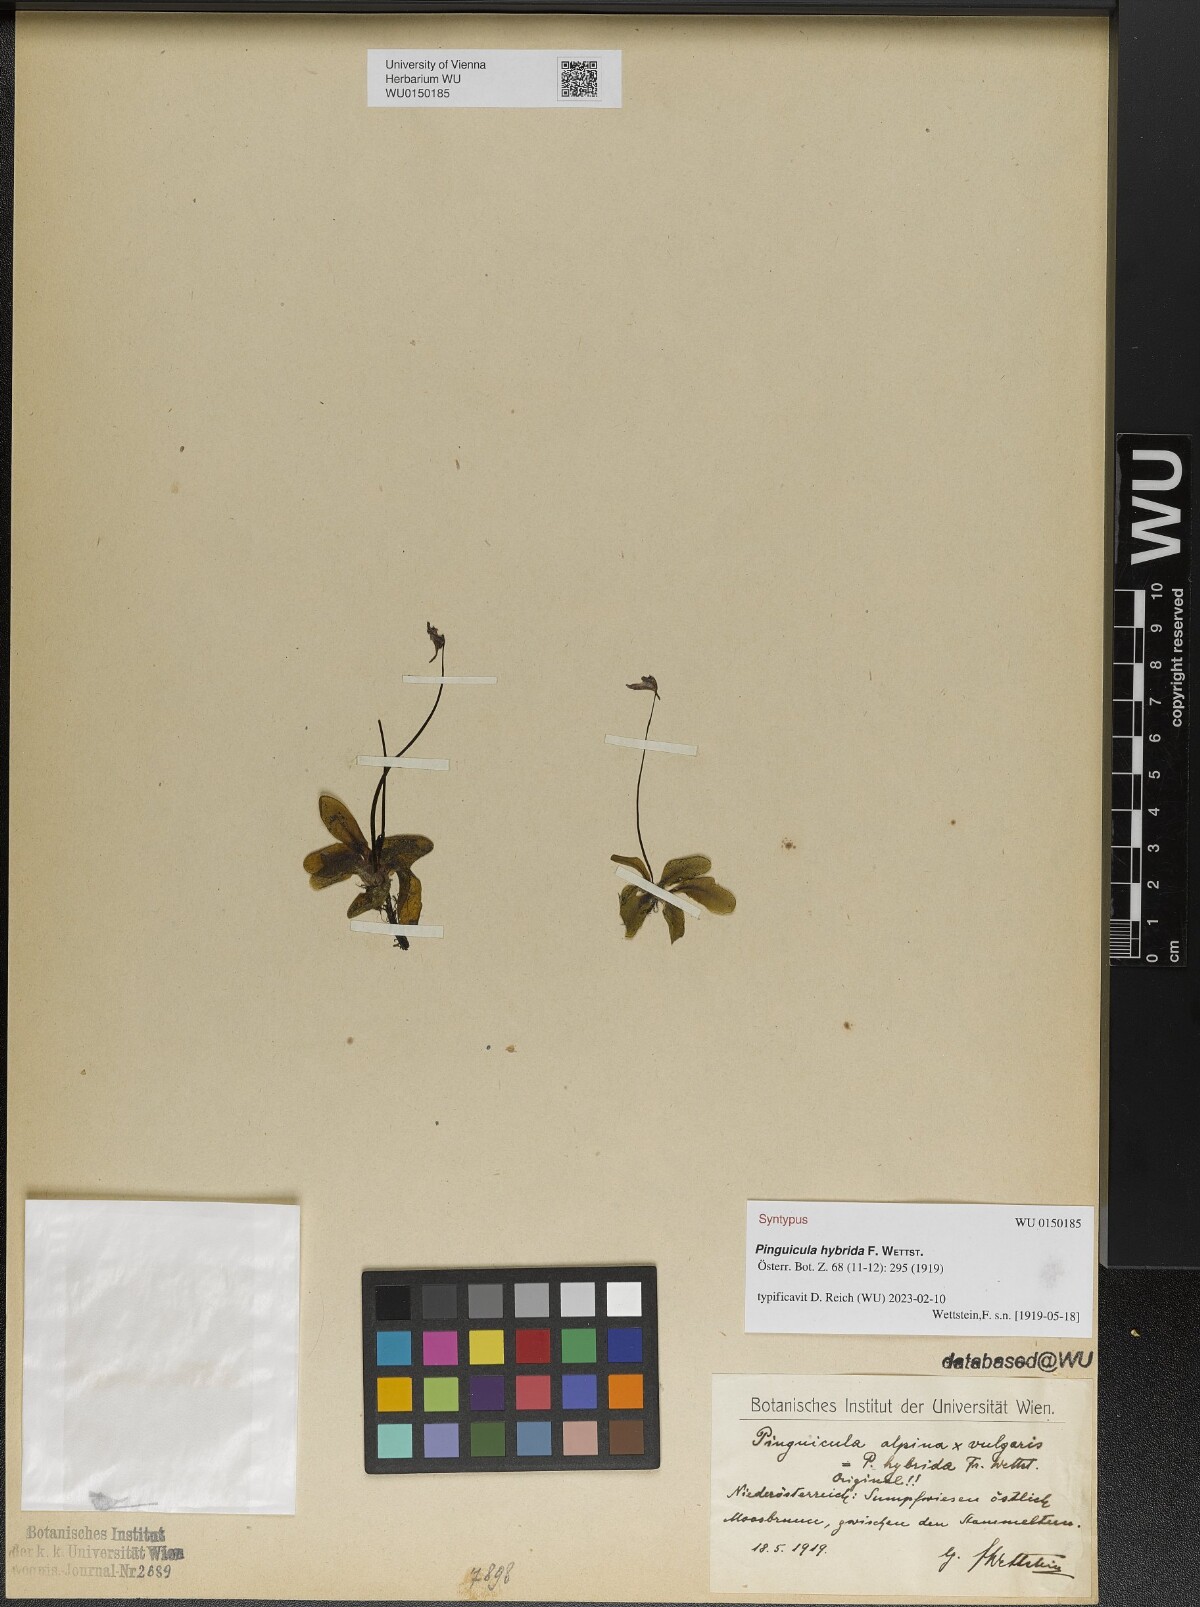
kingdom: Plantae
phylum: Tracheophyta
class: Magnoliopsida
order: Lamiales
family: Lentibulariaceae
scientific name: Lentibulariaceae
